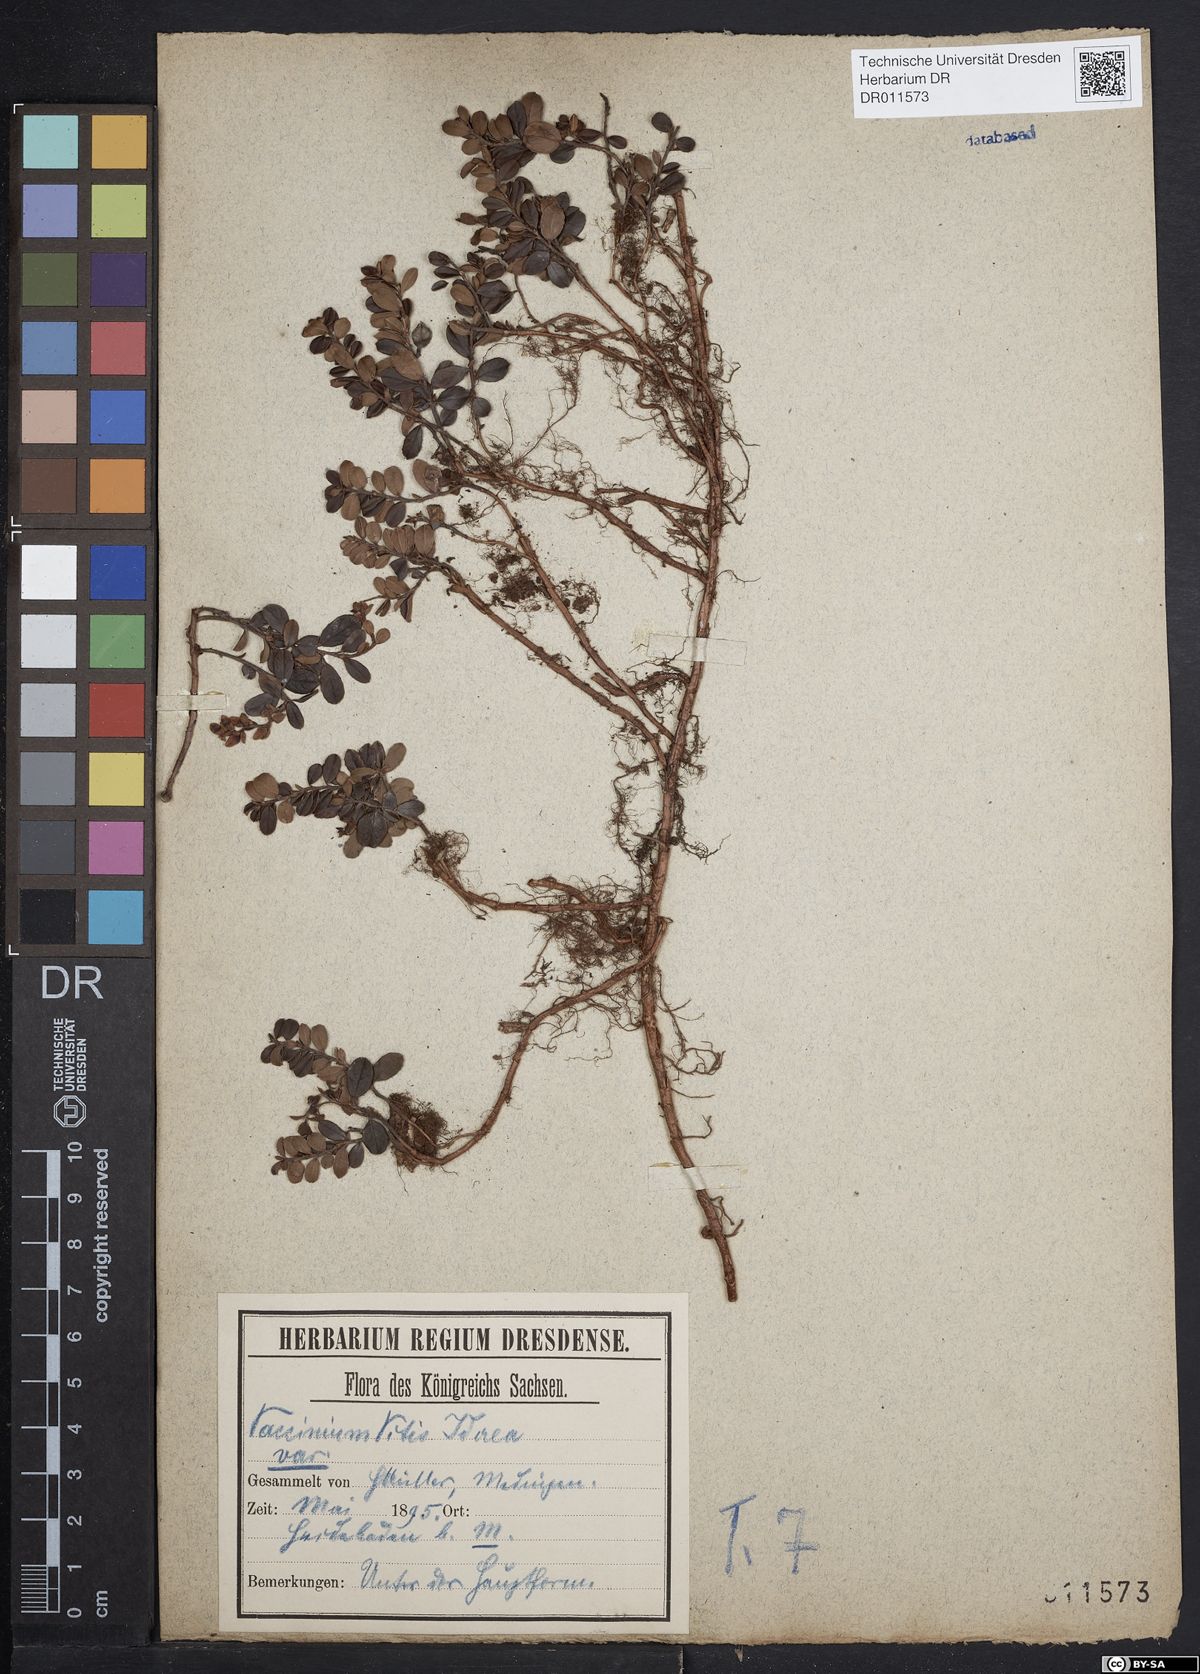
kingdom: Plantae
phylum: Tracheophyta
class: Magnoliopsida
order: Ericales
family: Ericaceae
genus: Vaccinium
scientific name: Vaccinium vitis-idaea
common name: Cowberry
